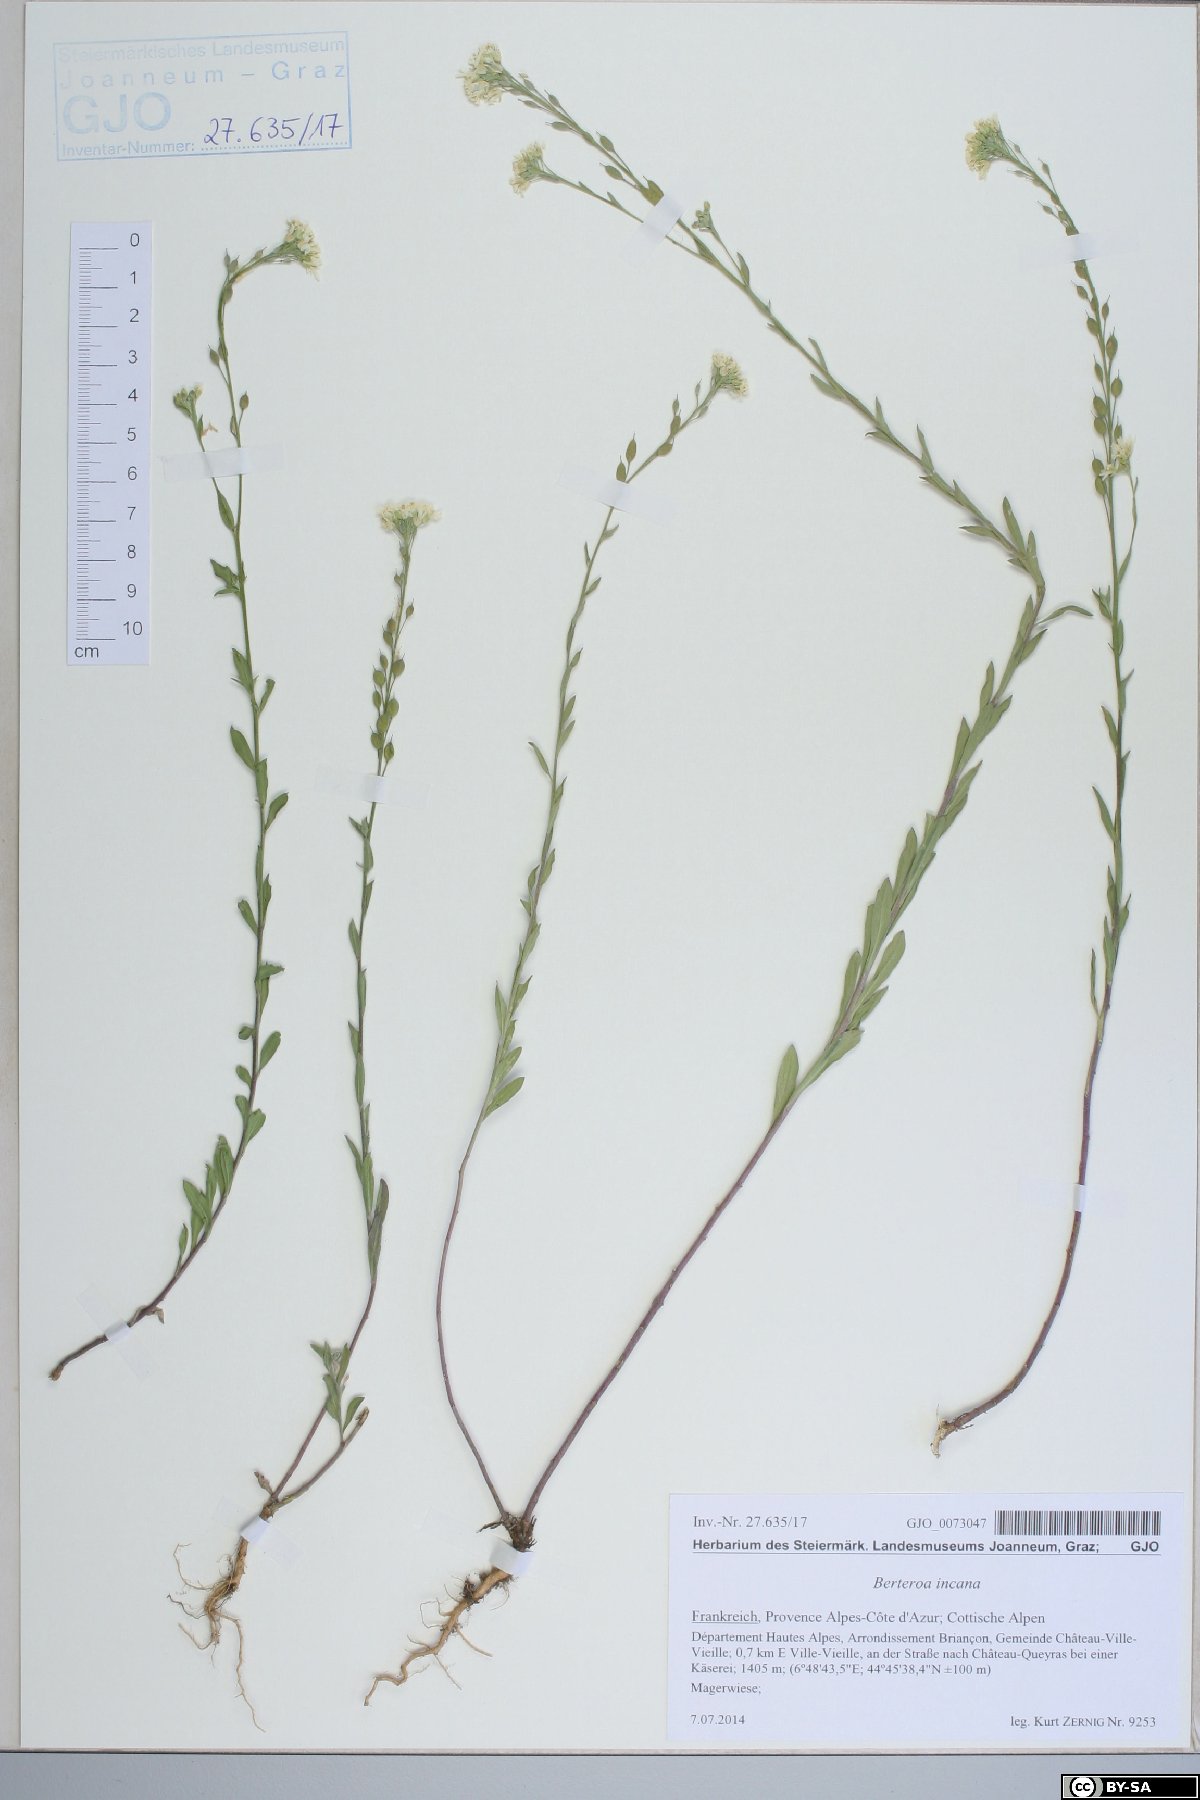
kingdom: Plantae
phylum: Tracheophyta
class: Magnoliopsida
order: Brassicales
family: Brassicaceae
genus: Berteroa
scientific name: Berteroa incana
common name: Hoary alison
